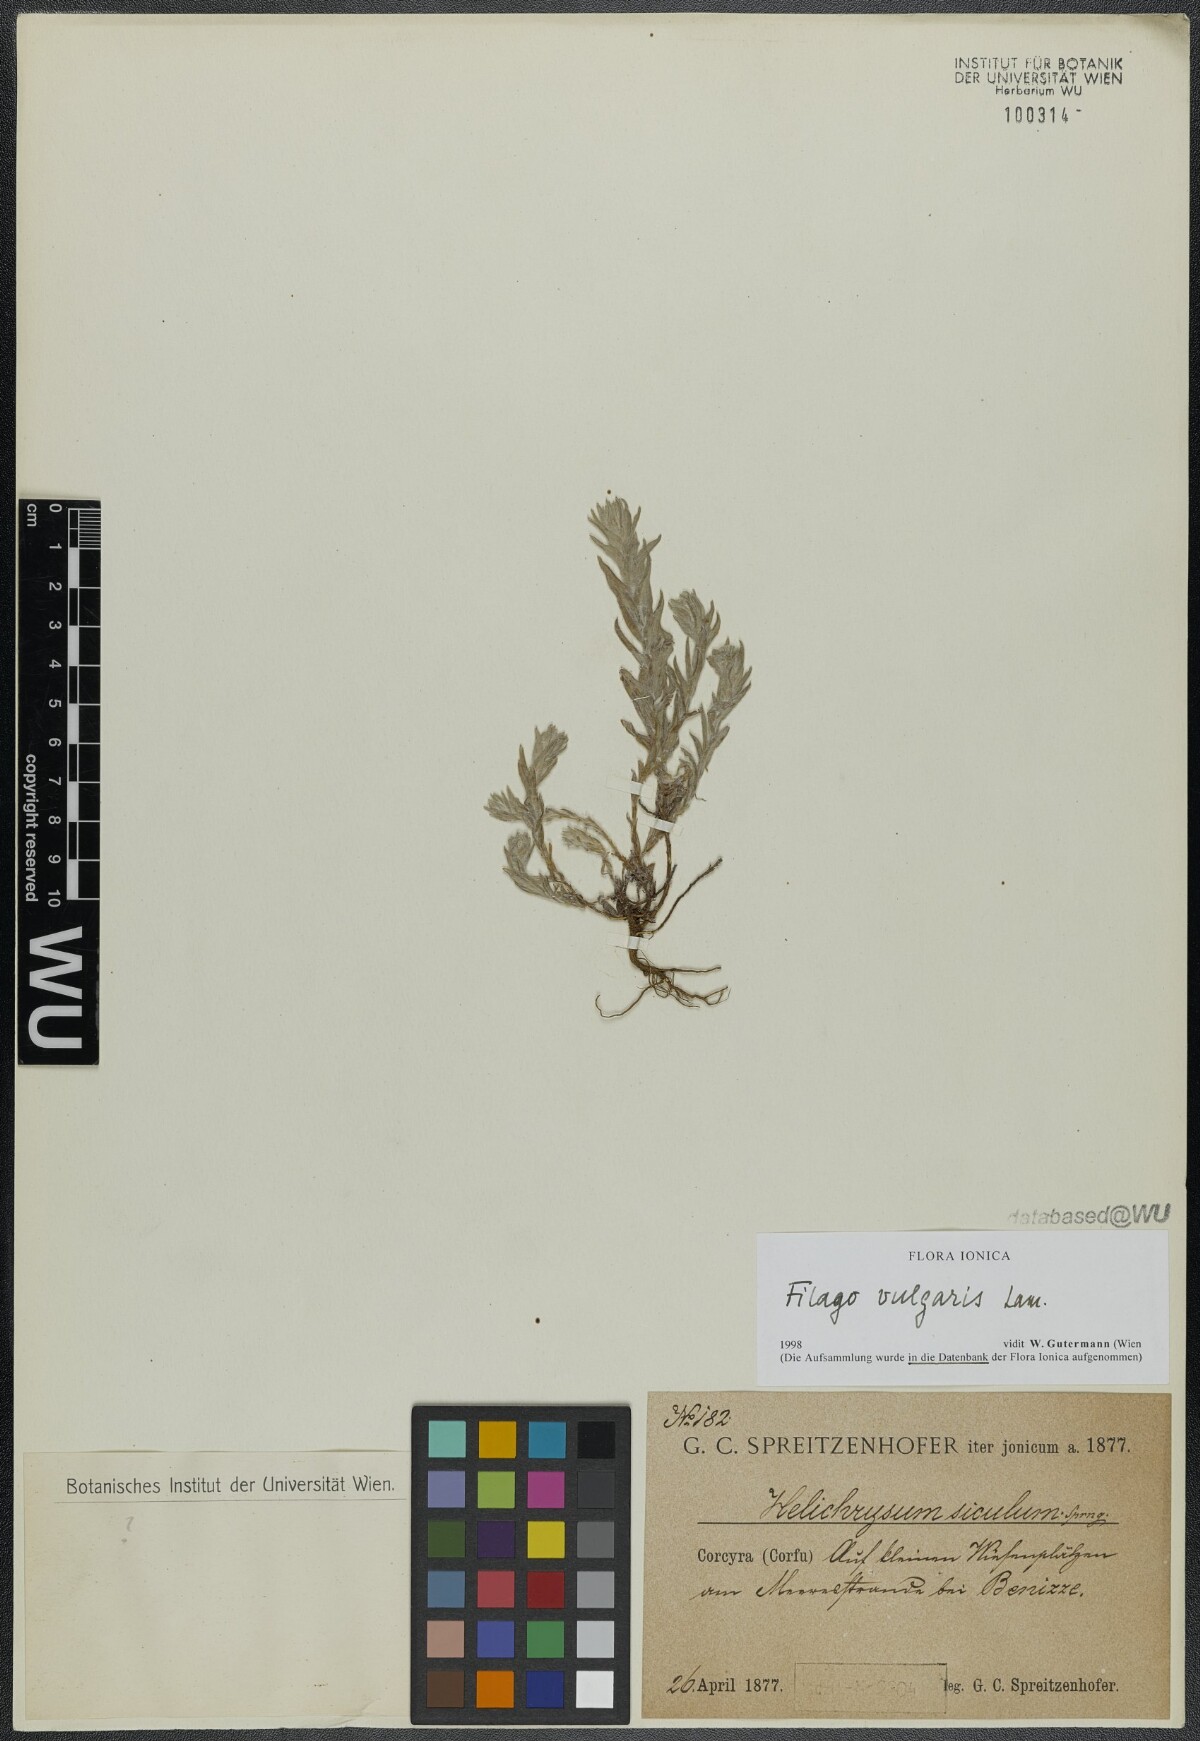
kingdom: Plantae
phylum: Tracheophyta
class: Magnoliopsida
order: Asterales
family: Asteraceae
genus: Filago
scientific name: Filago germanica
